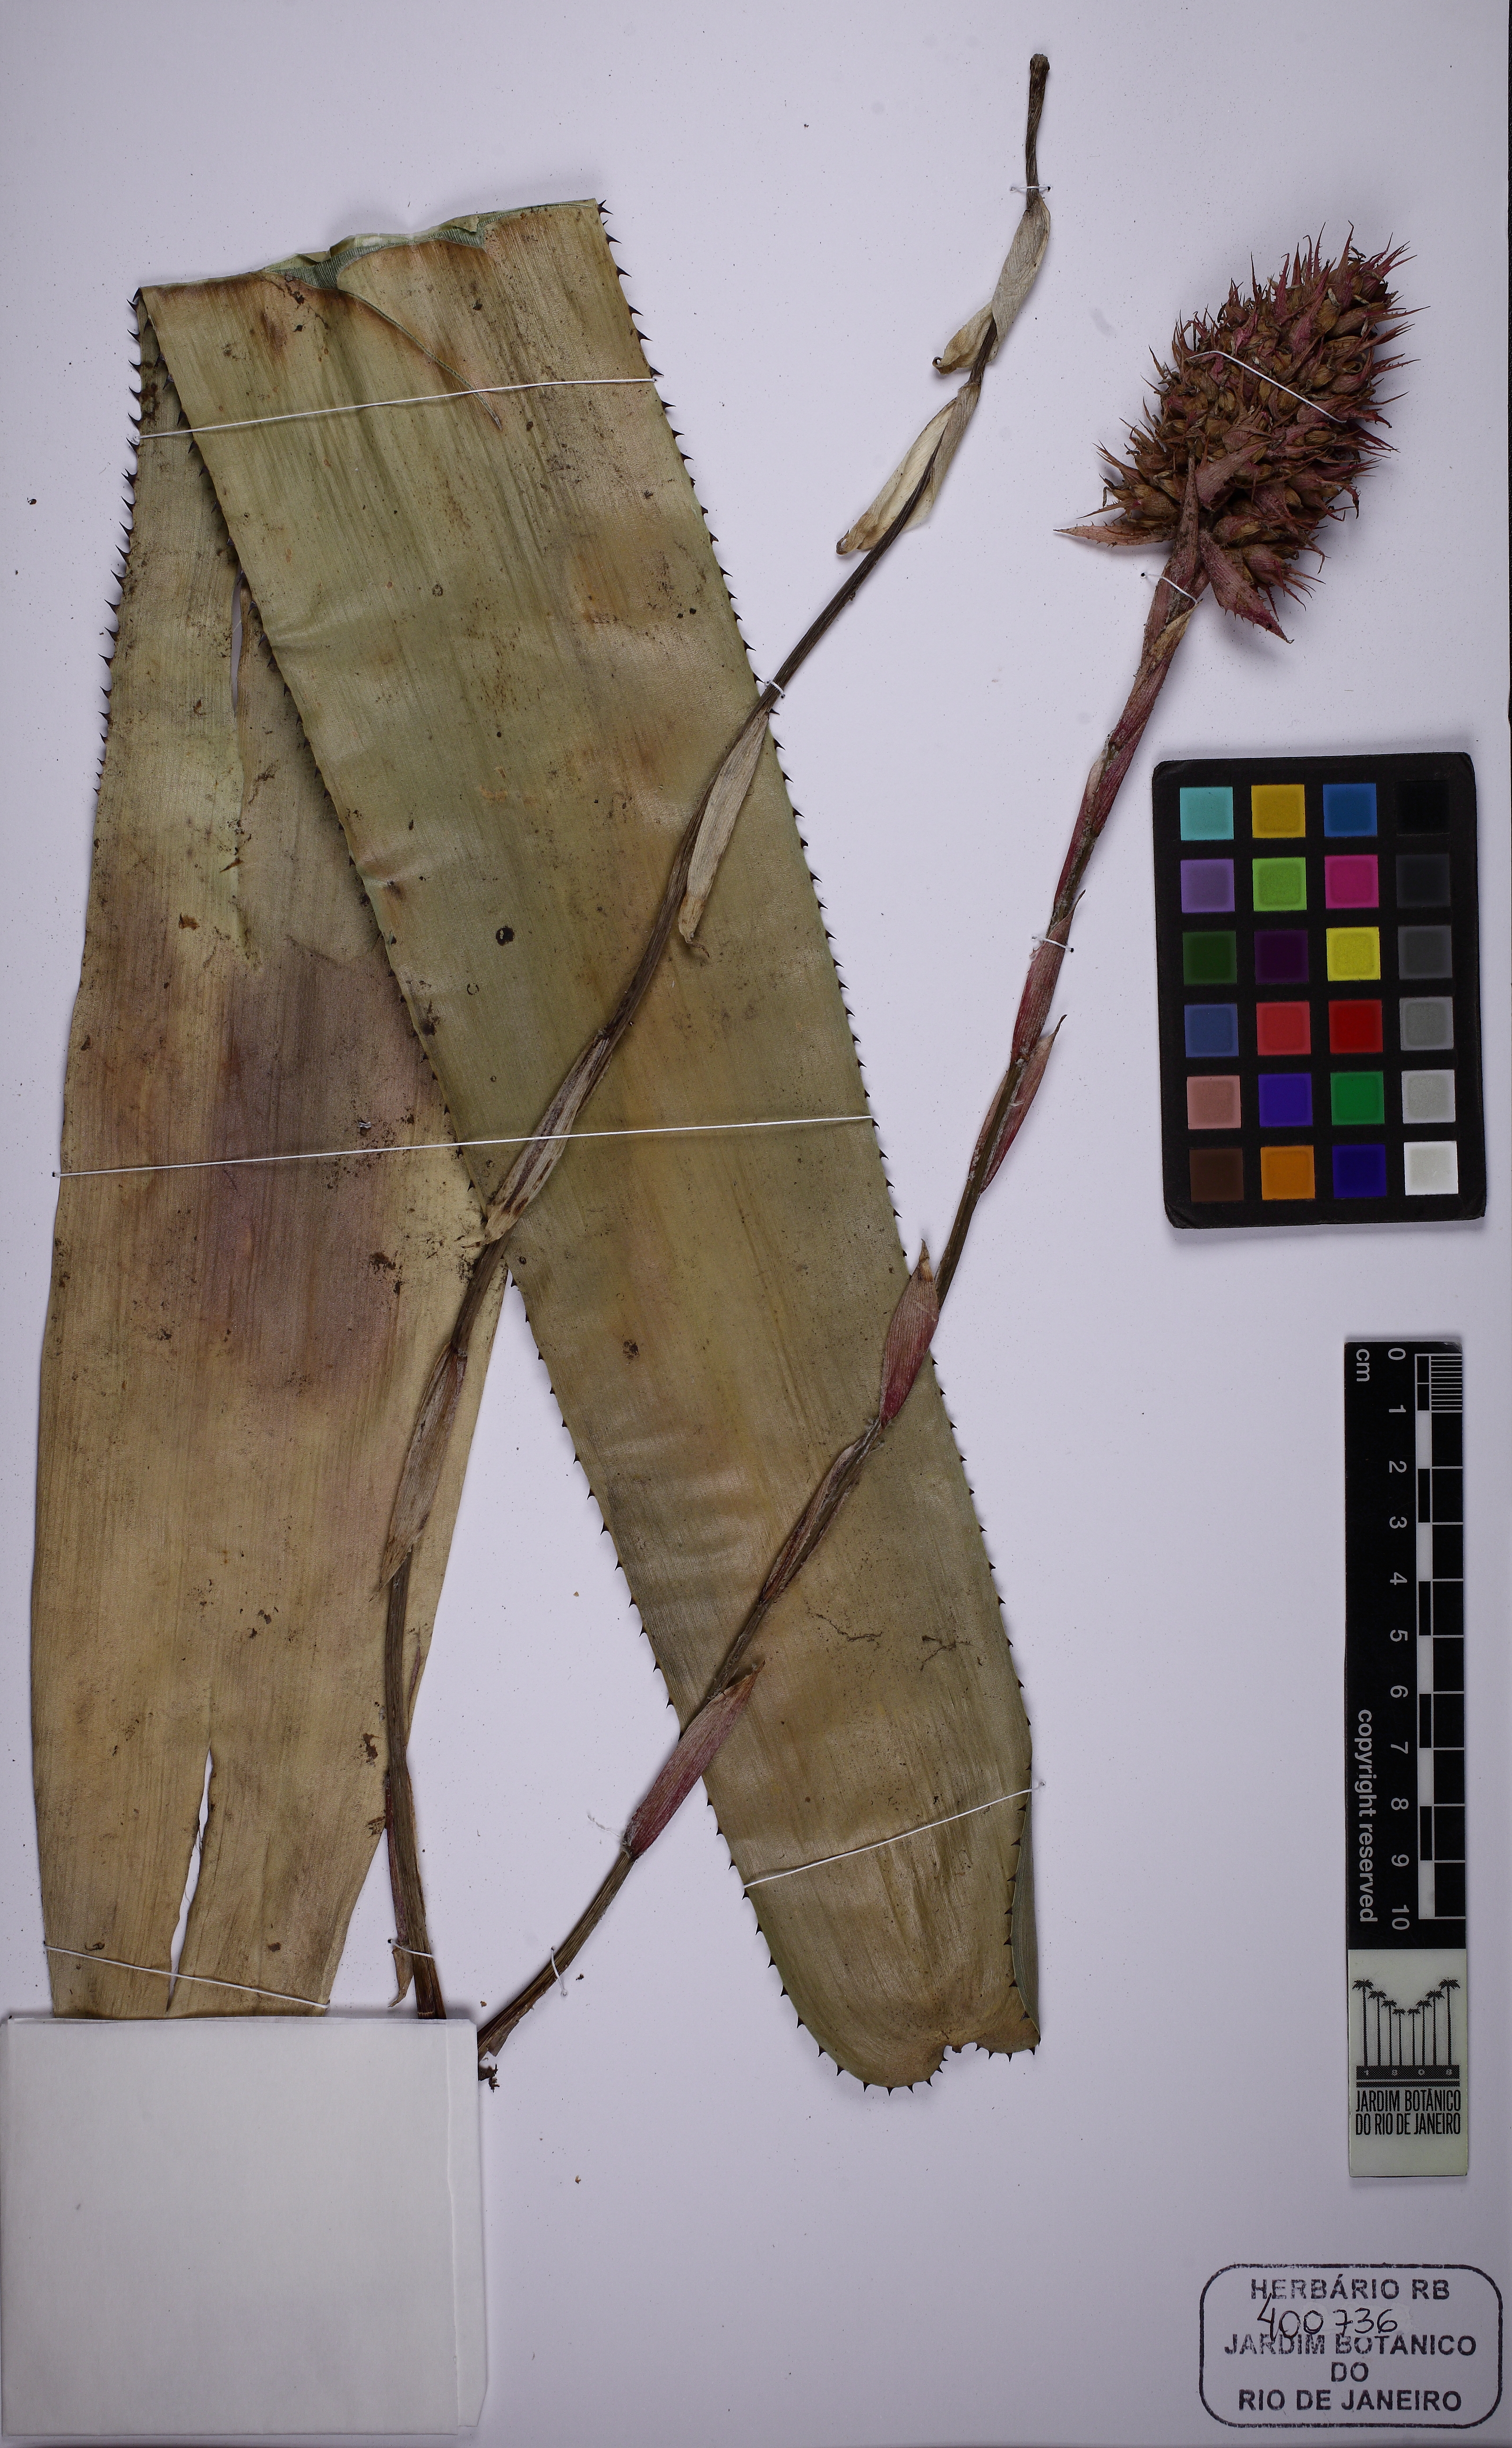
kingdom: Plantae
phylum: Tracheophyta
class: Liliopsida
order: Poales
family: Bromeliaceae
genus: Aechmea
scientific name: Aechmea caesia
